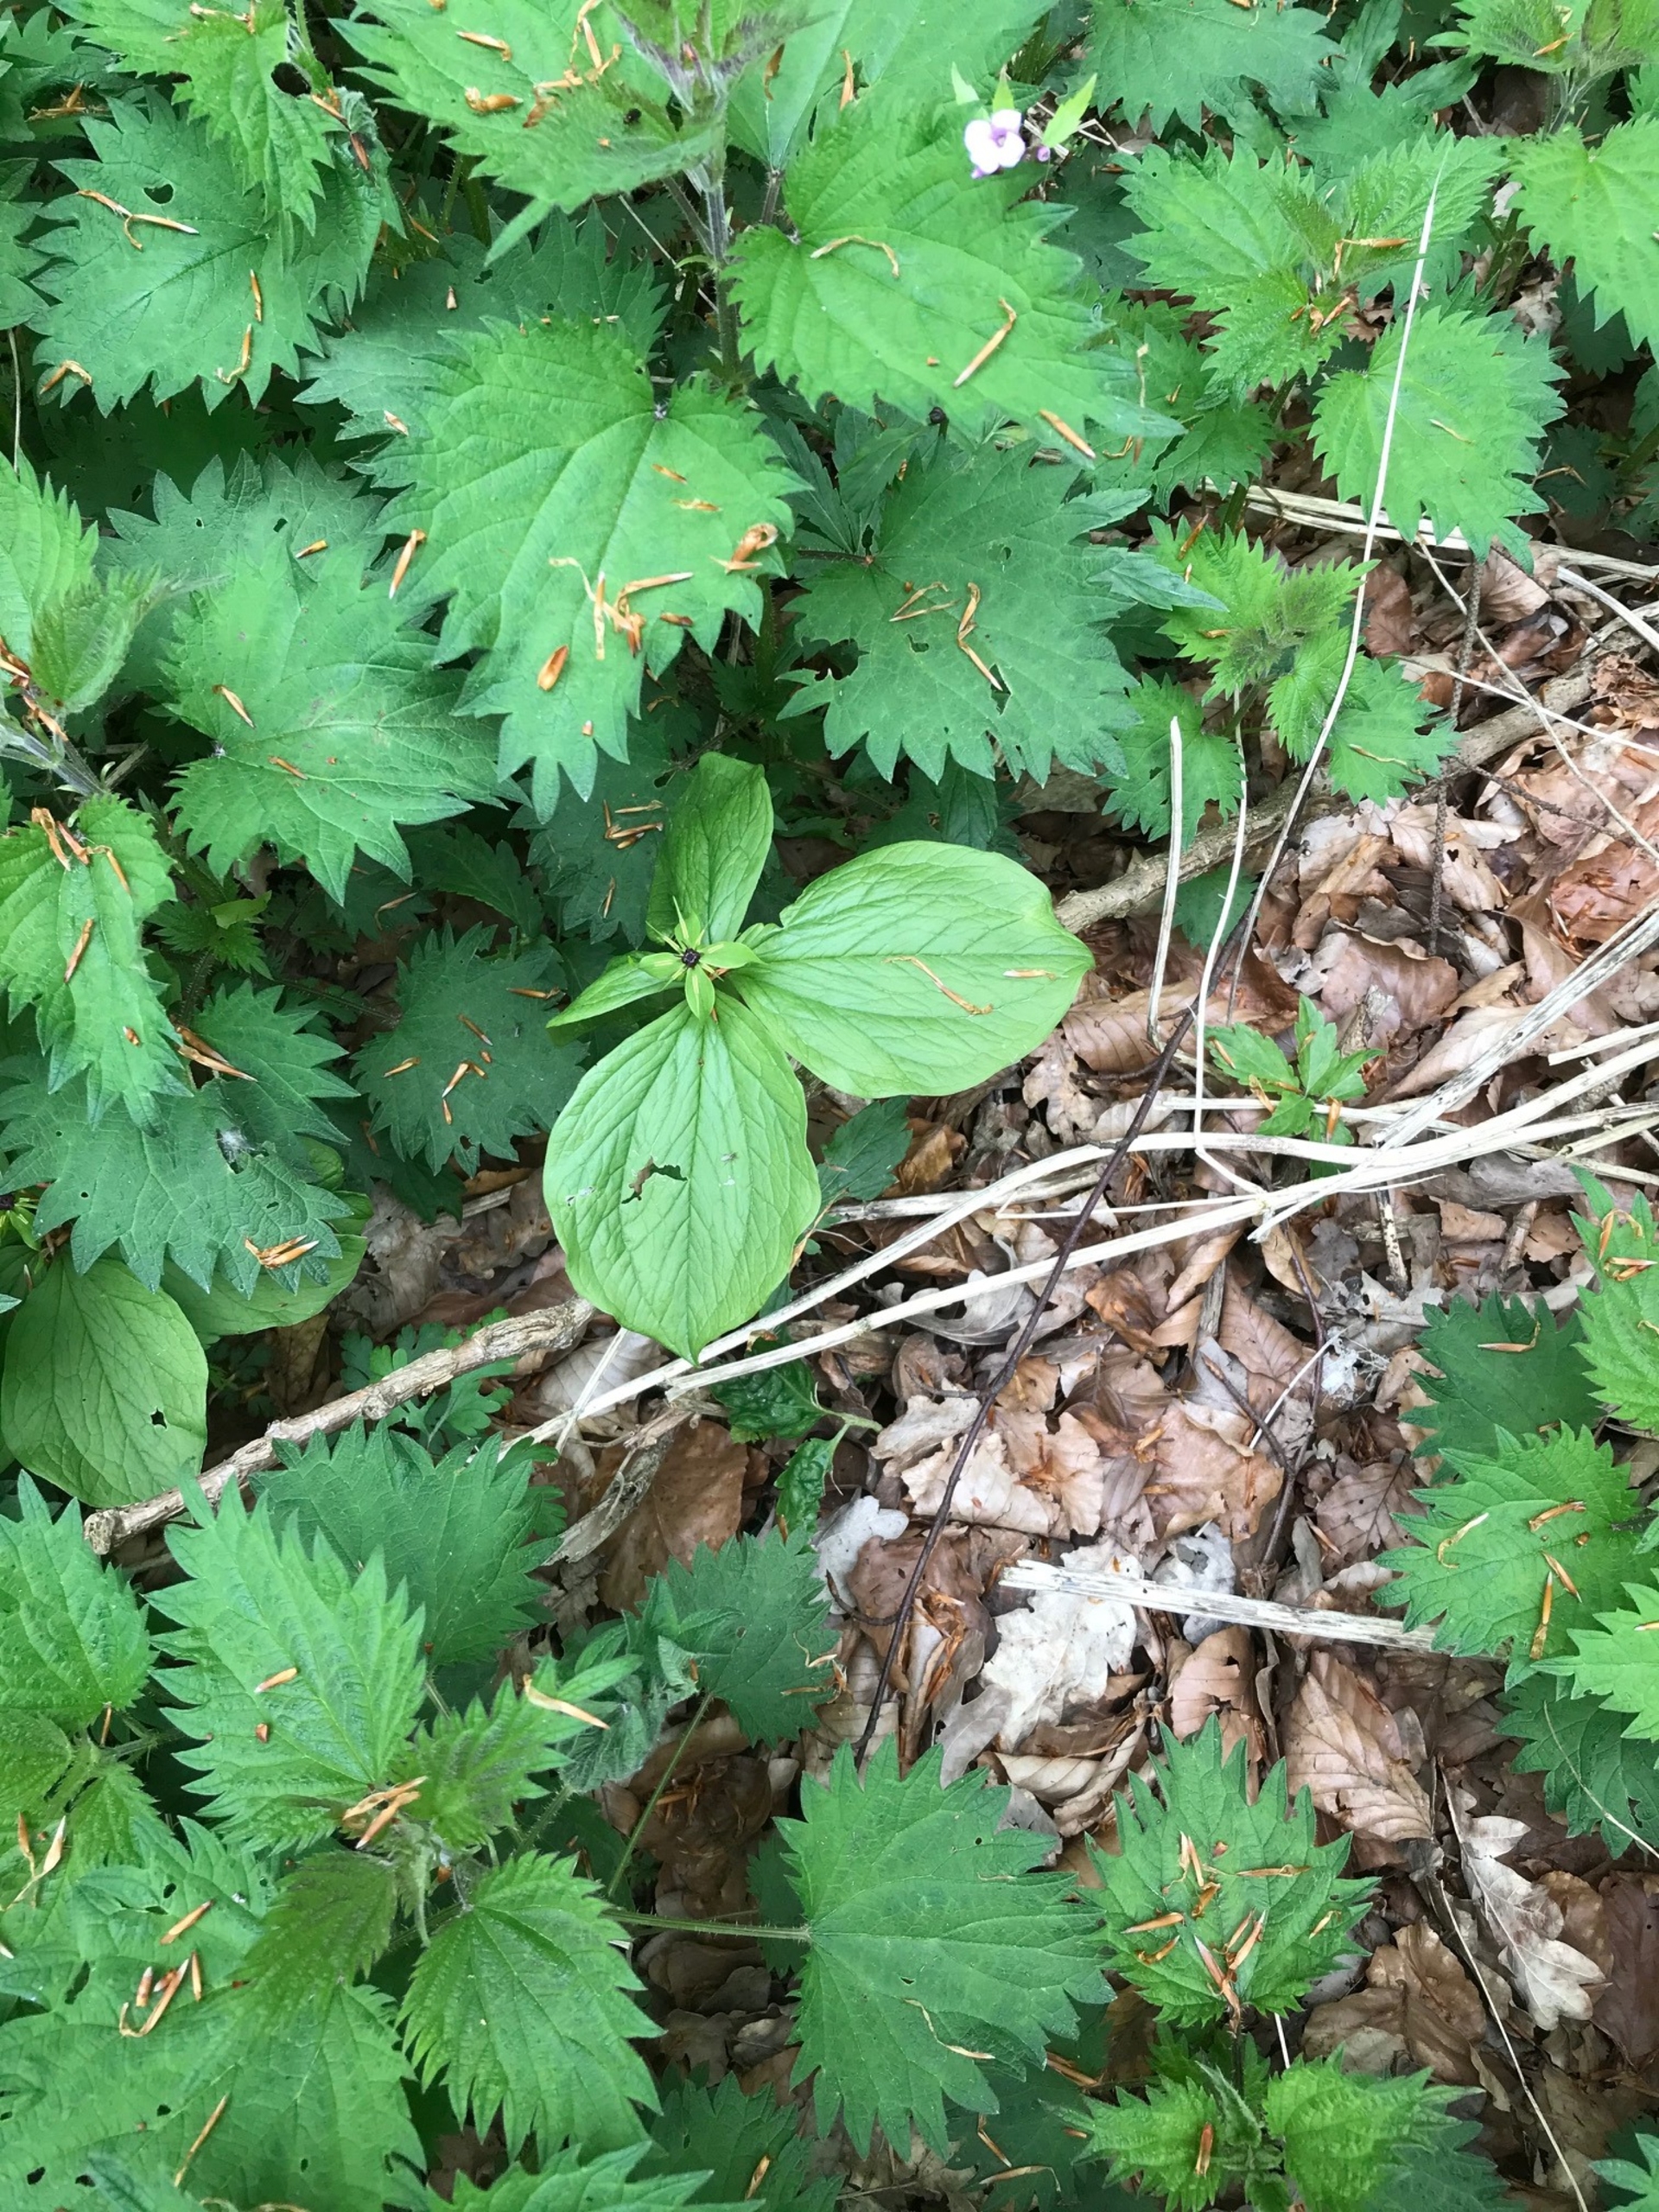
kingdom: Plantae
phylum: Tracheophyta
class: Liliopsida
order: Liliales
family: Melanthiaceae
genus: Paris
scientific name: Paris quadrifolia
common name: Firblad
